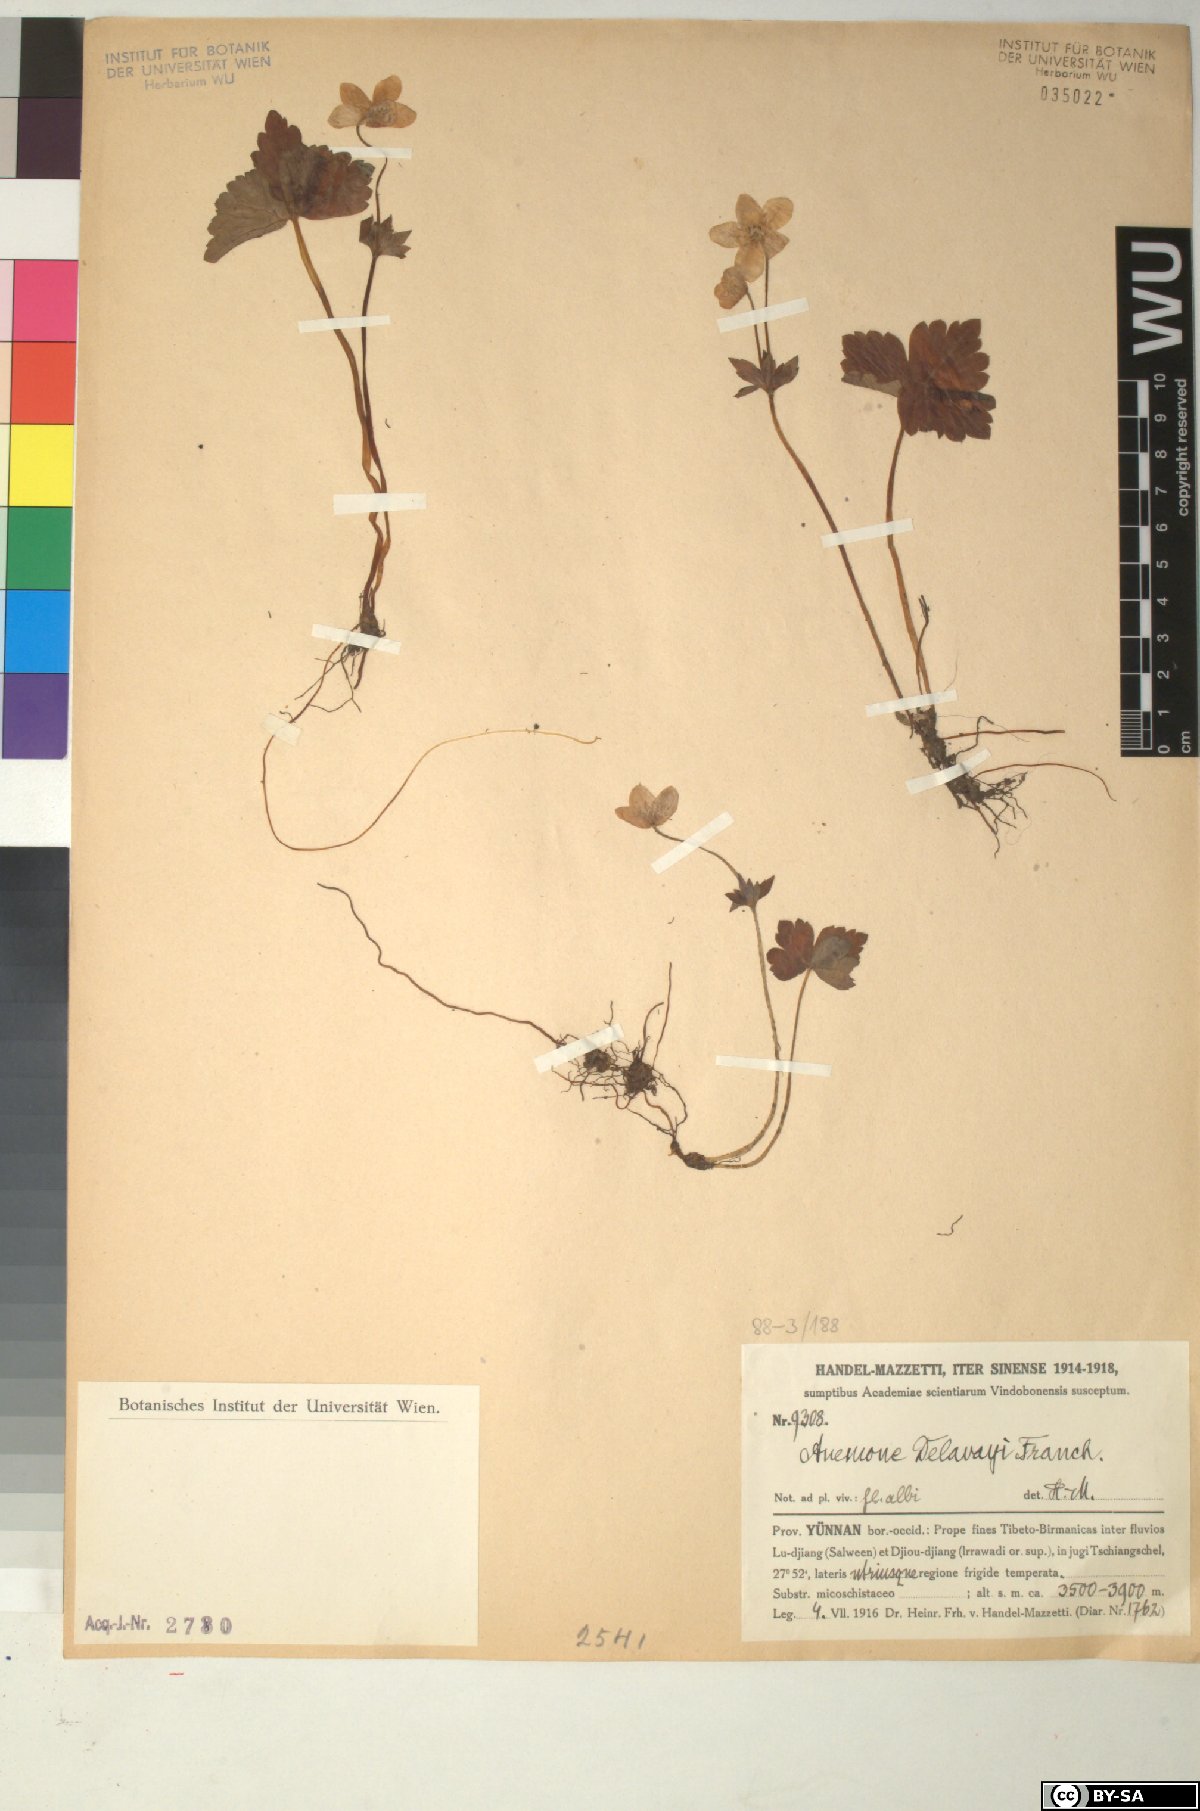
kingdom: Plantae
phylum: Tracheophyta
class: Magnoliopsida
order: Ranunculales
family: Ranunculaceae
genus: Anemone
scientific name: Anemone delavayi
